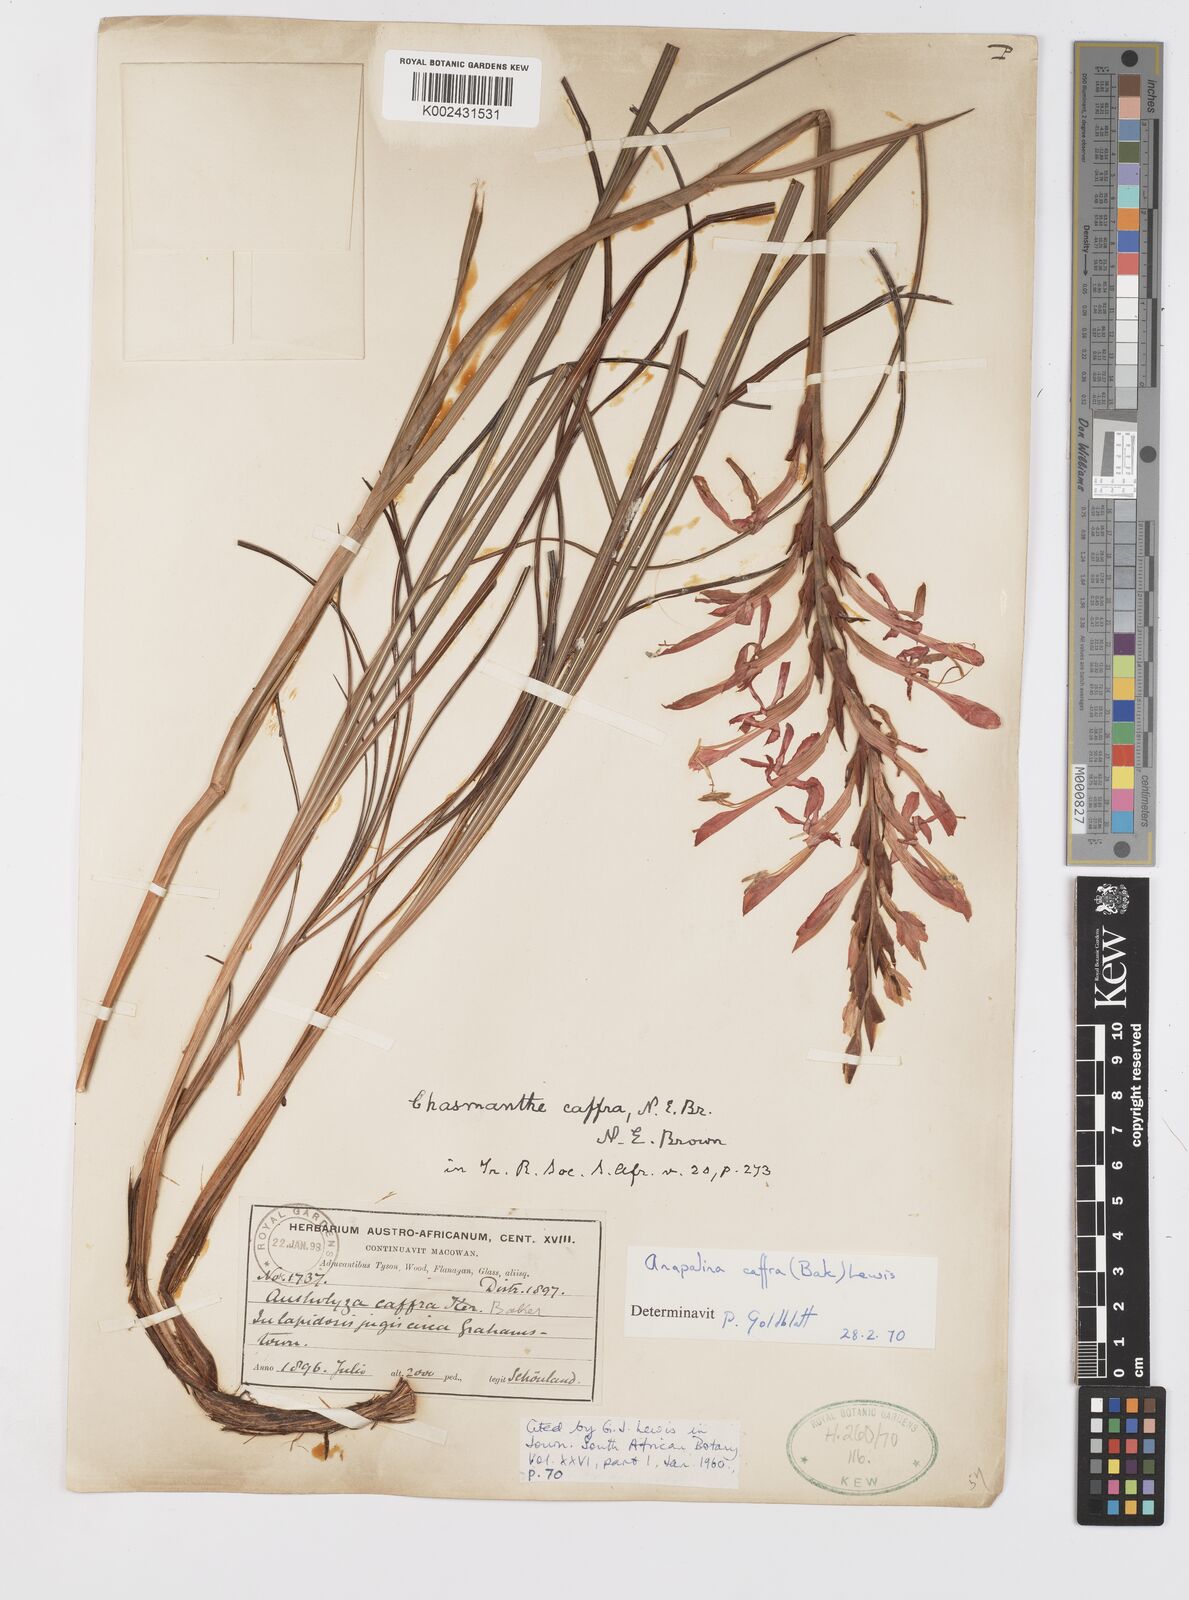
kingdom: Plantae
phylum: Tracheophyta
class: Liliopsida
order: Asparagales
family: Iridaceae
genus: Tritoniopsis
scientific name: Tritoniopsis caffra
